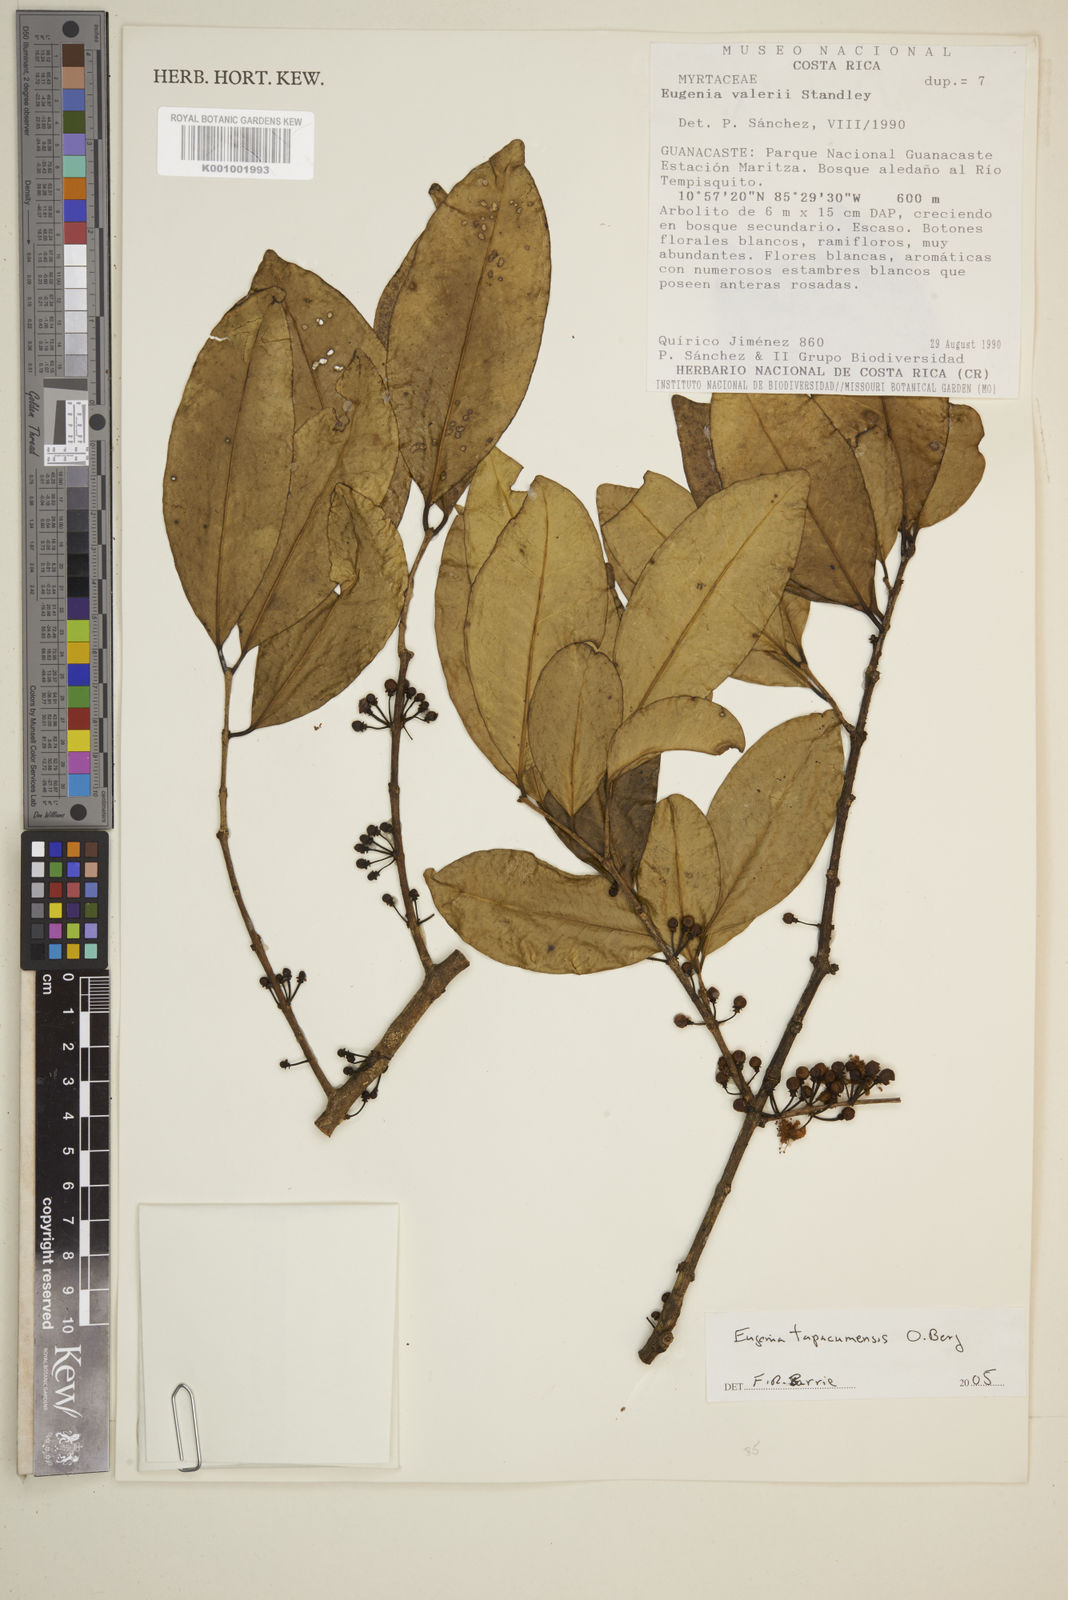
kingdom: Plantae
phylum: Tracheophyta
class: Magnoliopsida
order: Myrtales
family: Myrtaceae
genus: Eugenia
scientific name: Eugenia tapacumensis
